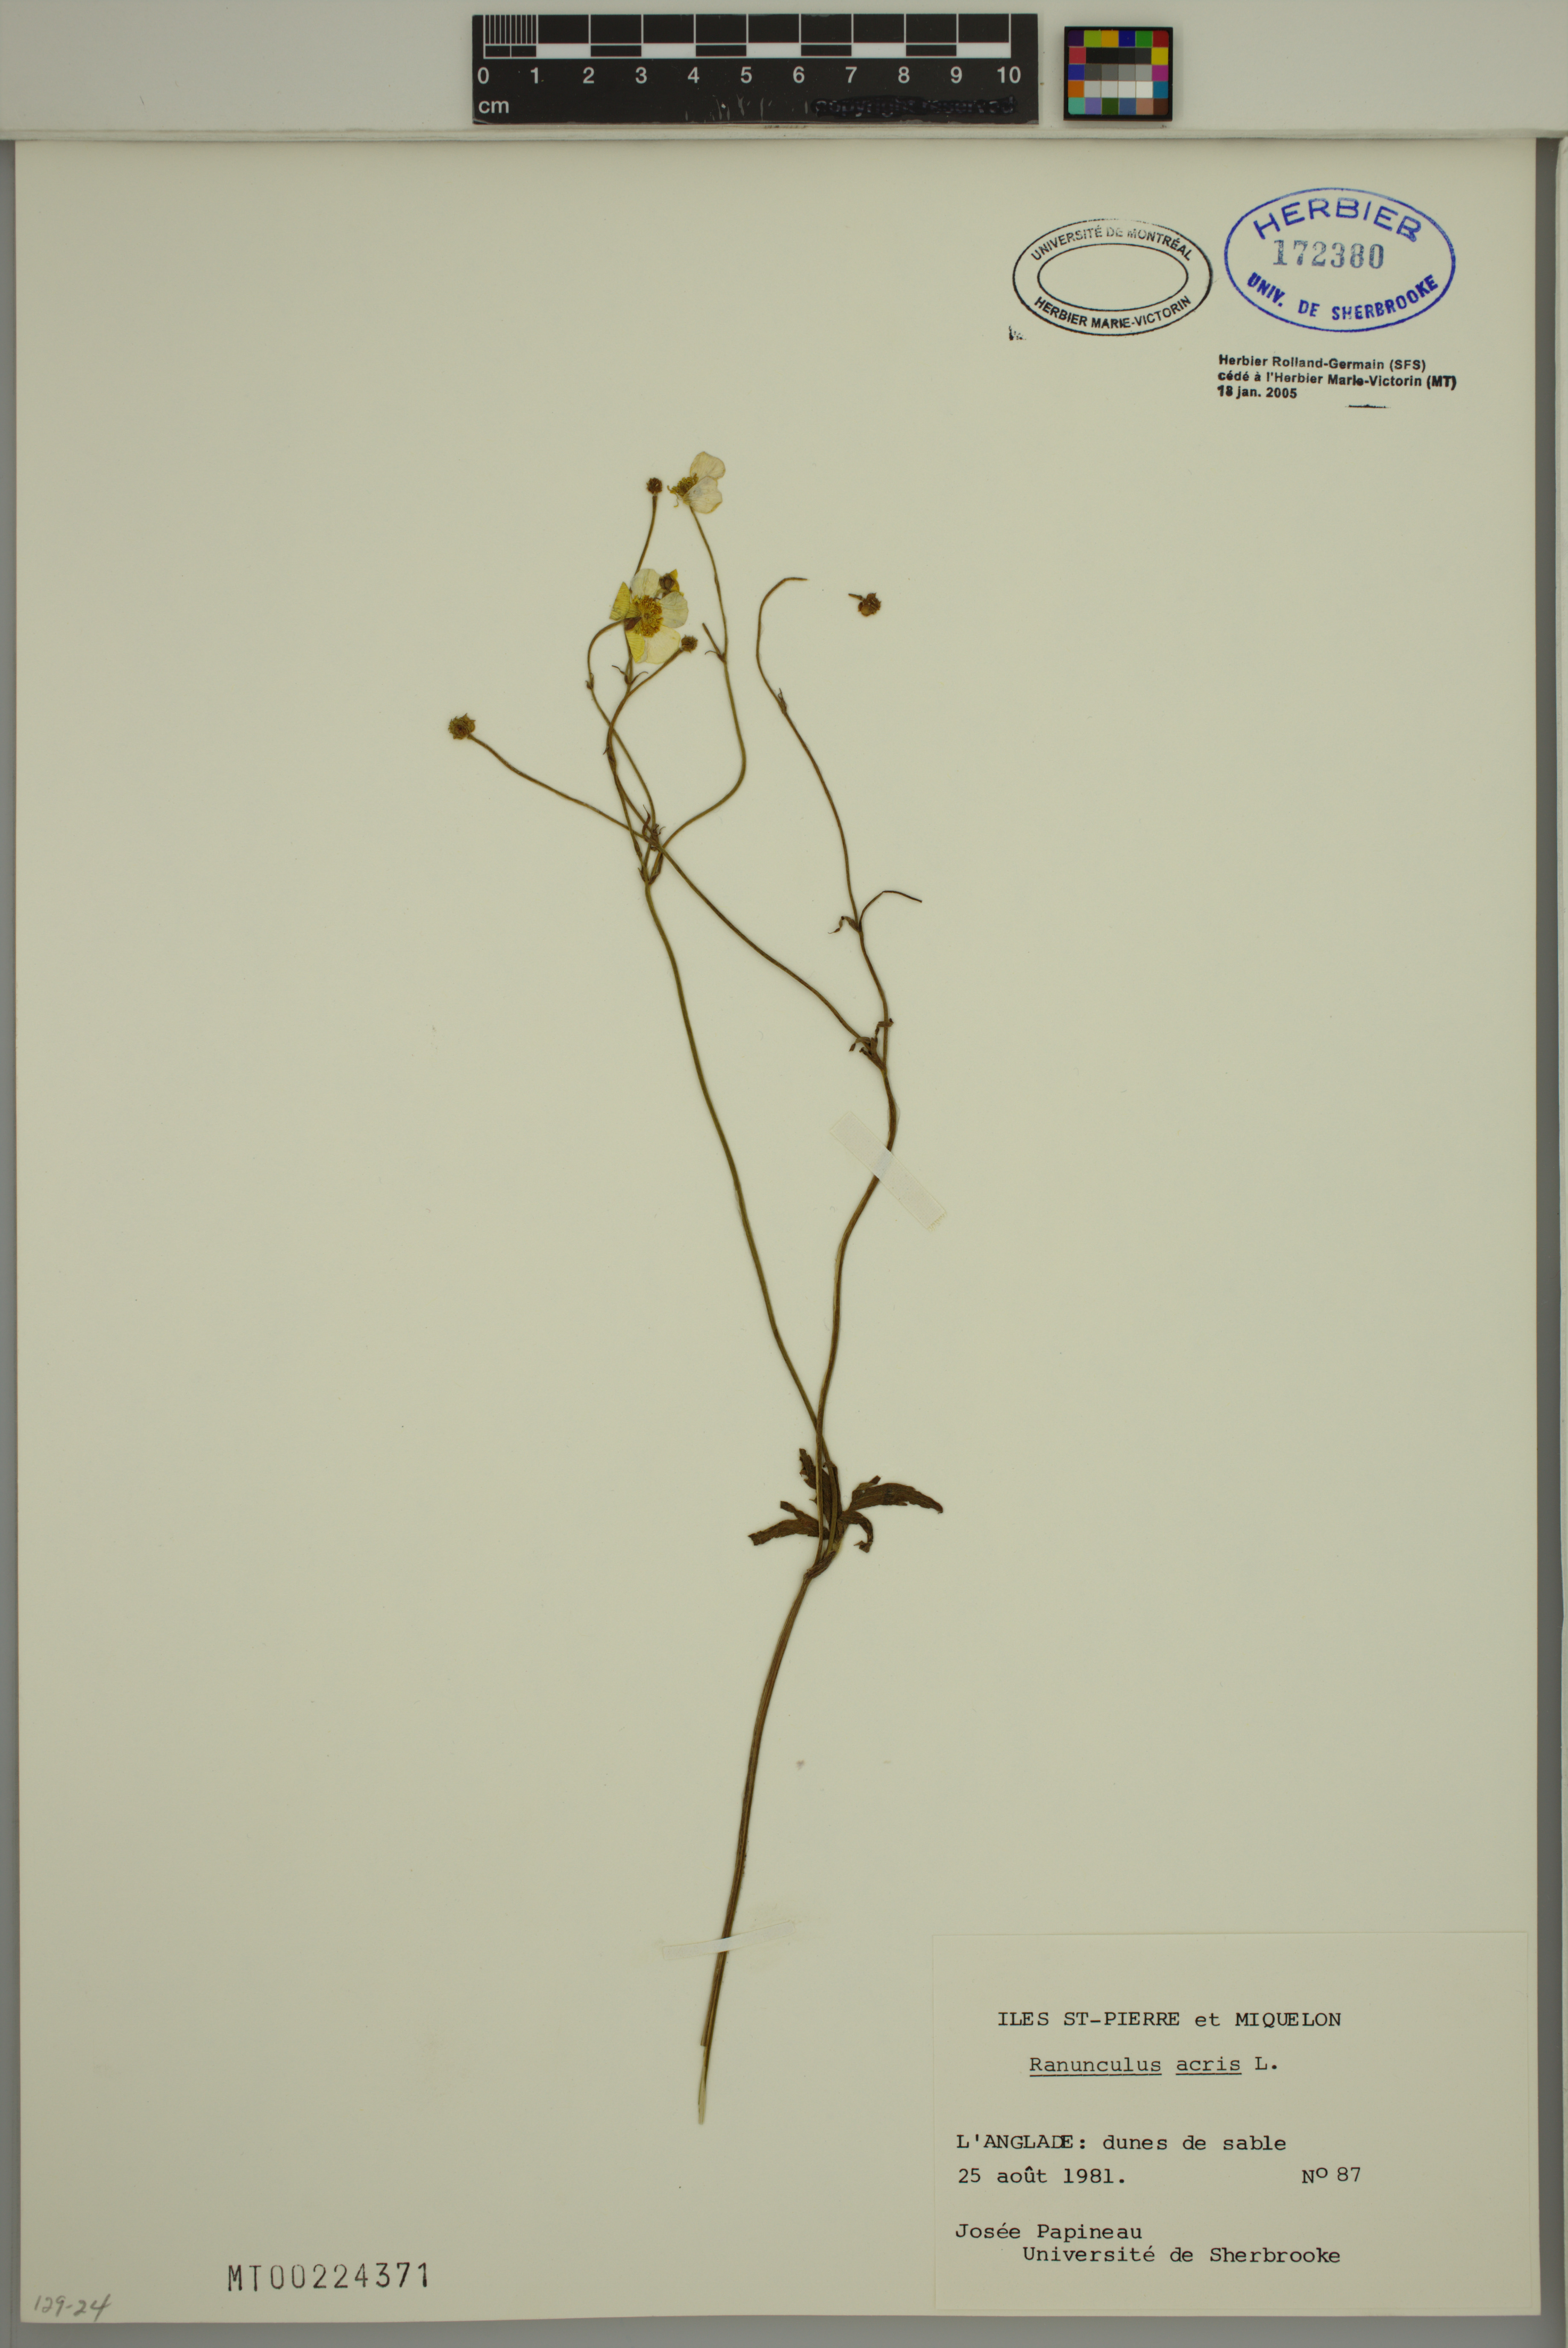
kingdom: Plantae
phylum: Tracheophyta
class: Magnoliopsida
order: Ranunculales
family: Ranunculaceae
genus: Ranunculus
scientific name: Ranunculus acris
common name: Meadow buttercup
